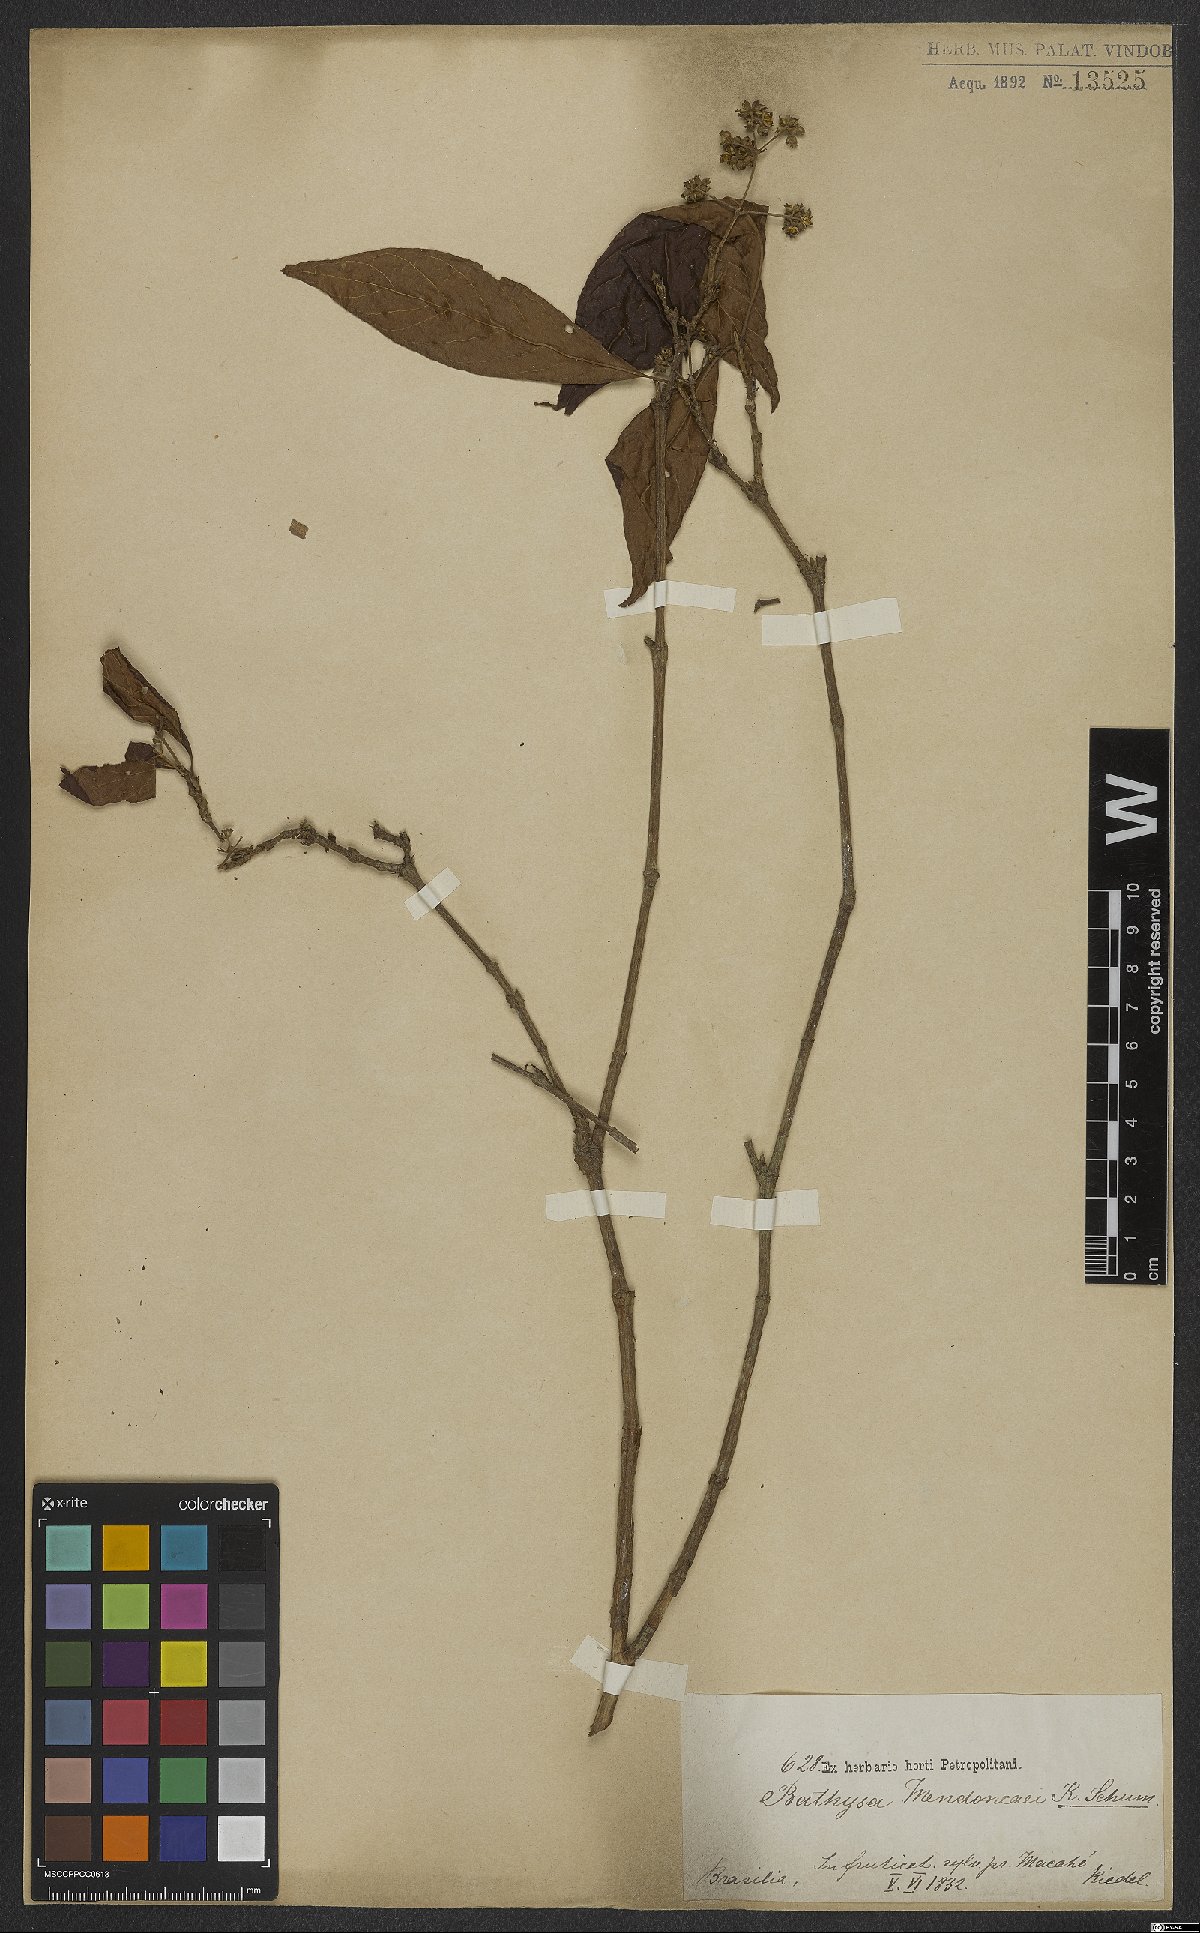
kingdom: Plantae
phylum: Tracheophyta
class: Magnoliopsida
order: Gentianales
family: Rubiaceae
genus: Bathysa
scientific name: Bathysa mendoncaei
